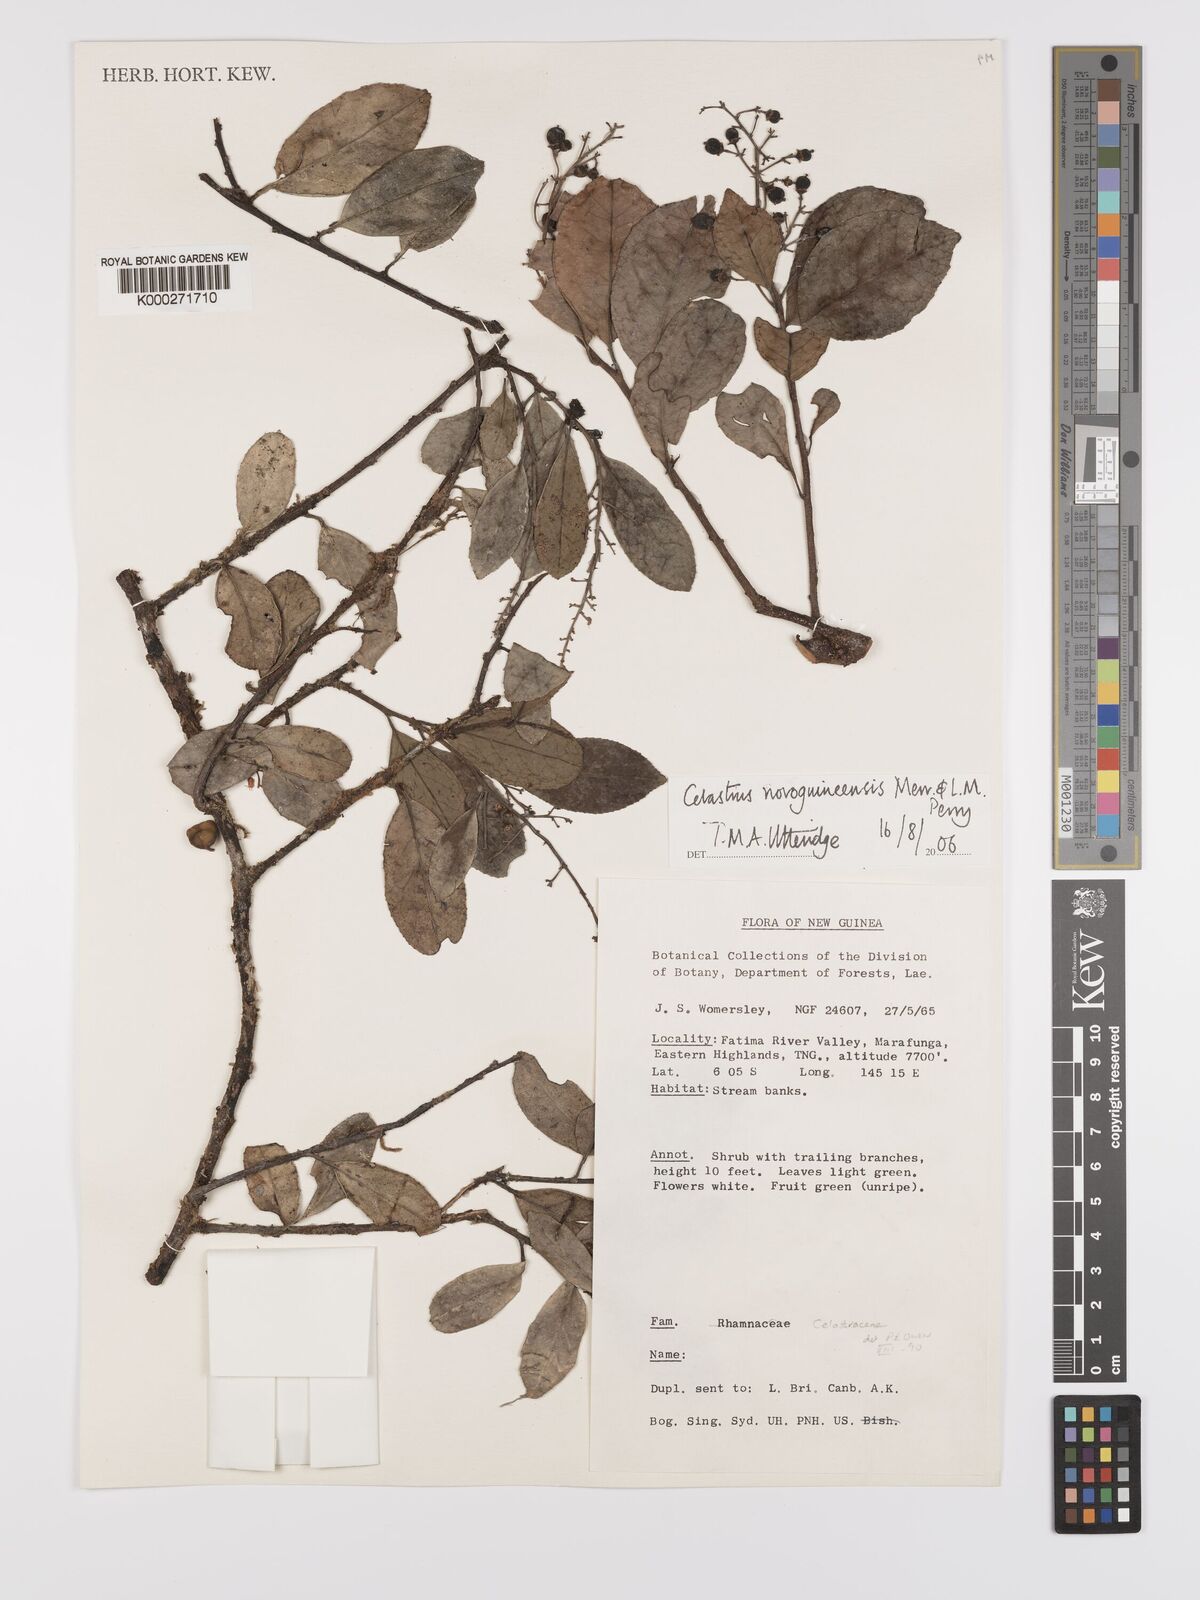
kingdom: Plantae
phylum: Tracheophyta
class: Magnoliopsida
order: Celastrales
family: Celastraceae
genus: Celastrus
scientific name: Celastrus novoguineensis
